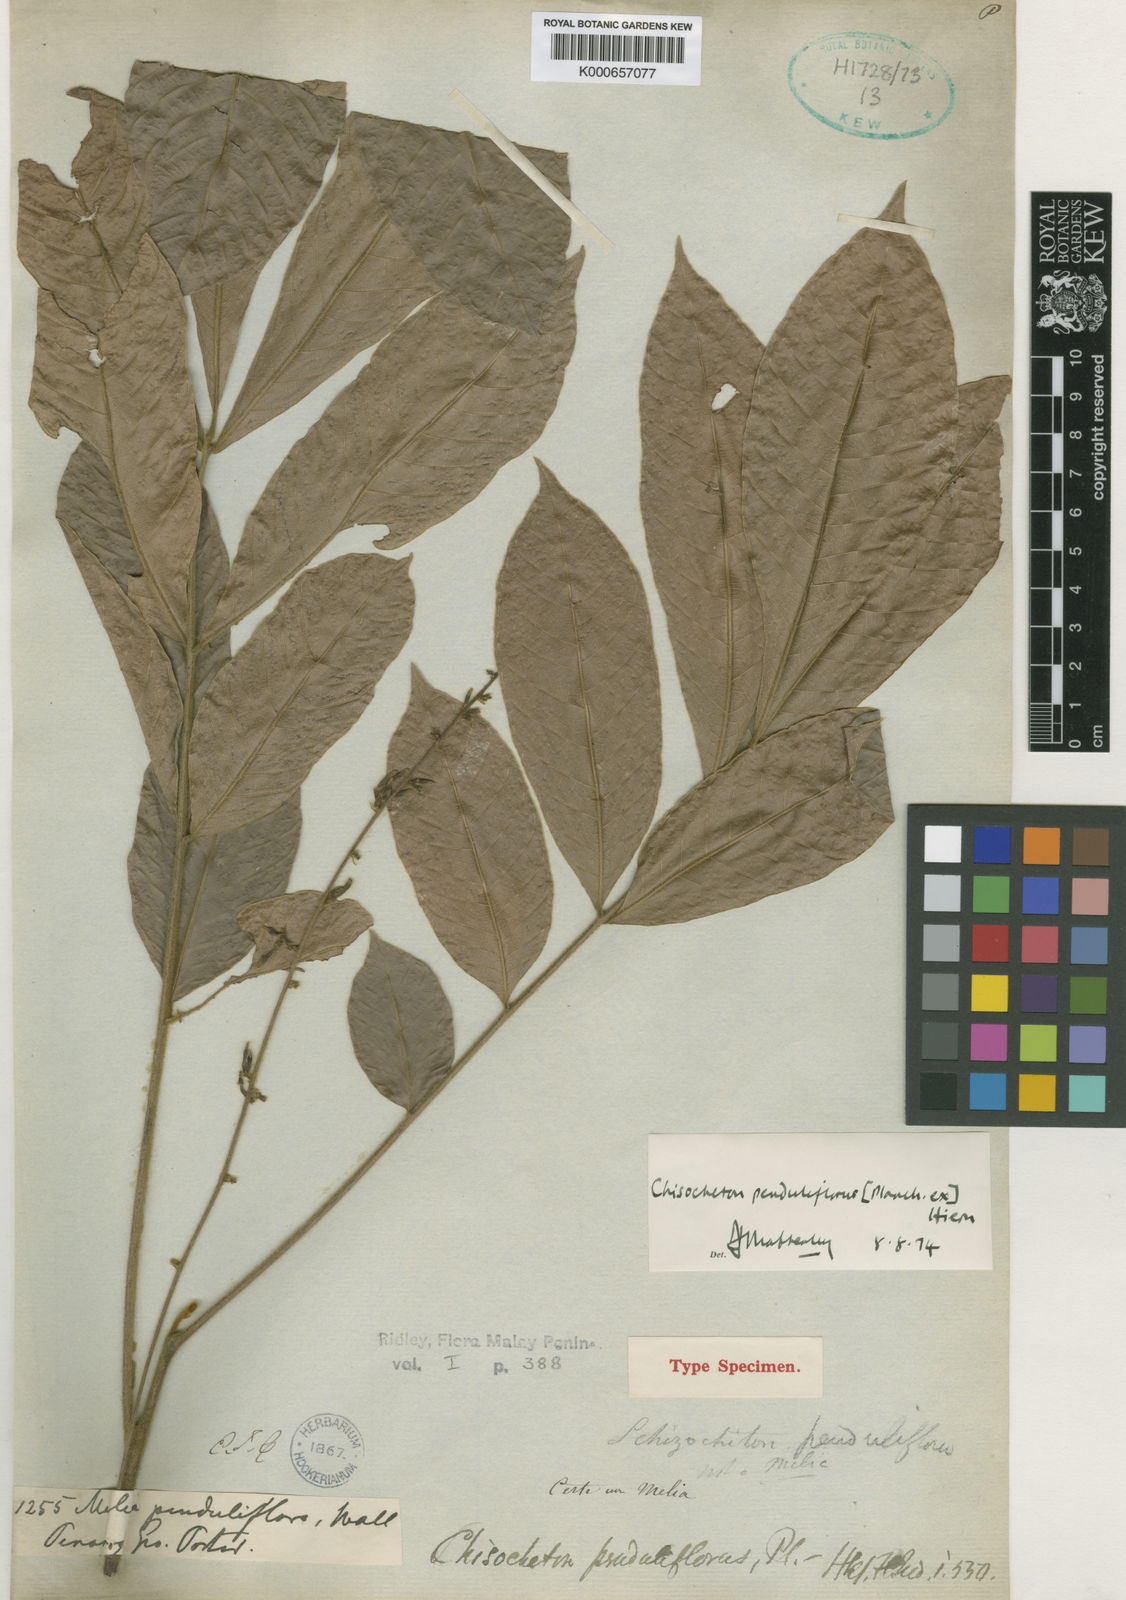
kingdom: Plantae
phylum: Tracheophyta
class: Magnoliopsida
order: Sapindales
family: Meliaceae
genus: Chisocheton
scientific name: Chisocheton penduliflorus
